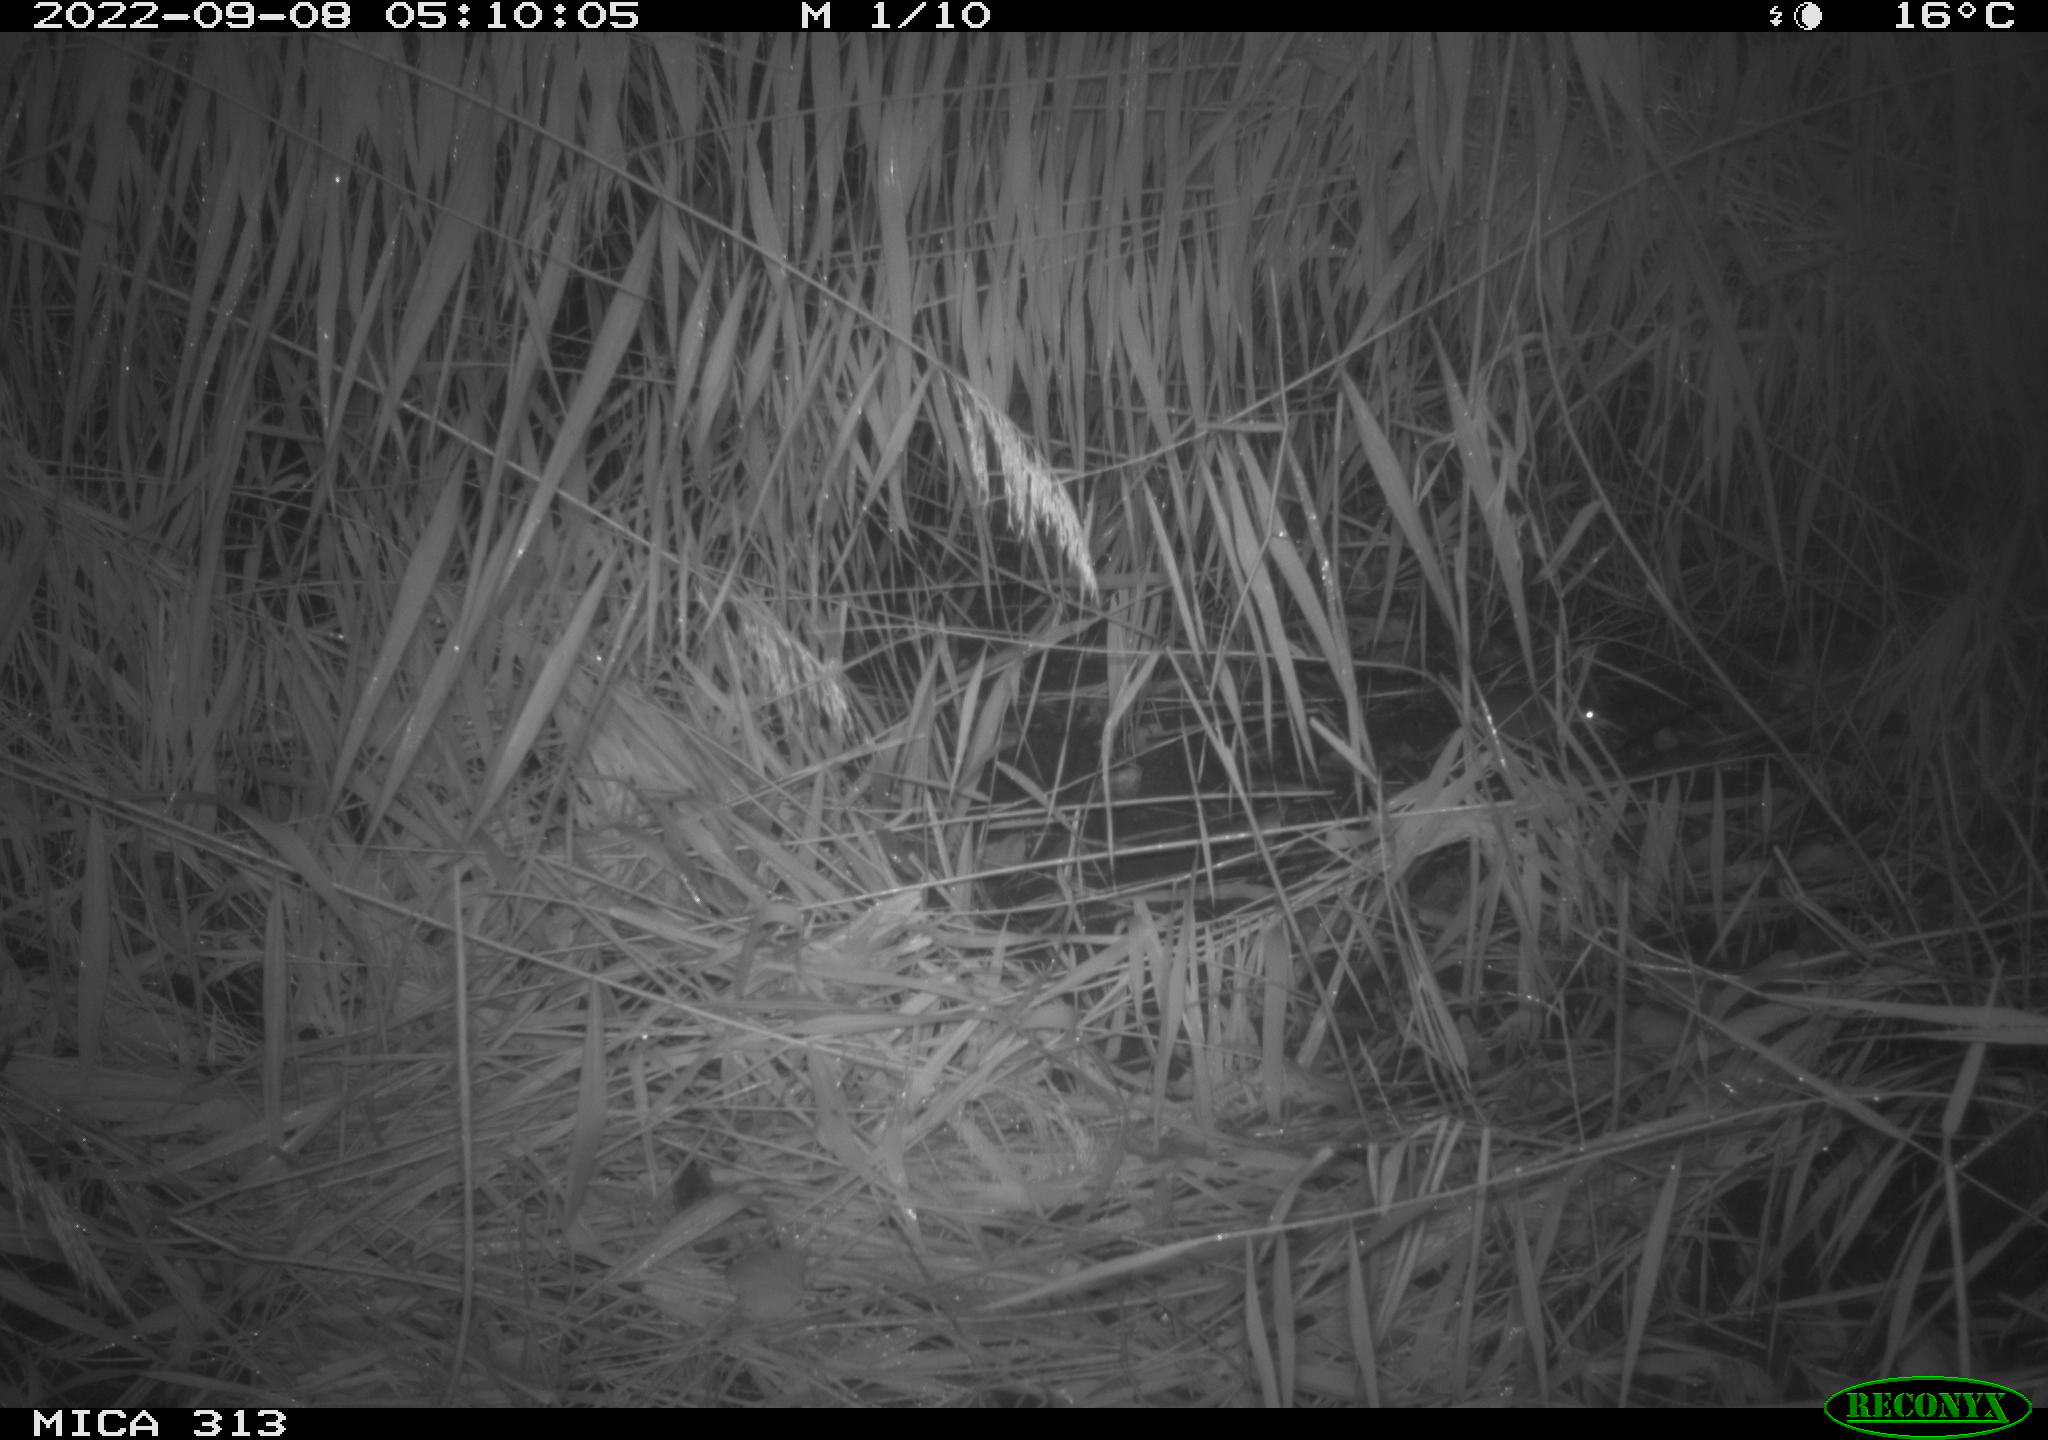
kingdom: Animalia
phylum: Chordata
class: Mammalia
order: Rodentia
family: Muridae
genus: Rattus
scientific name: Rattus norvegicus
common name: Brown rat
